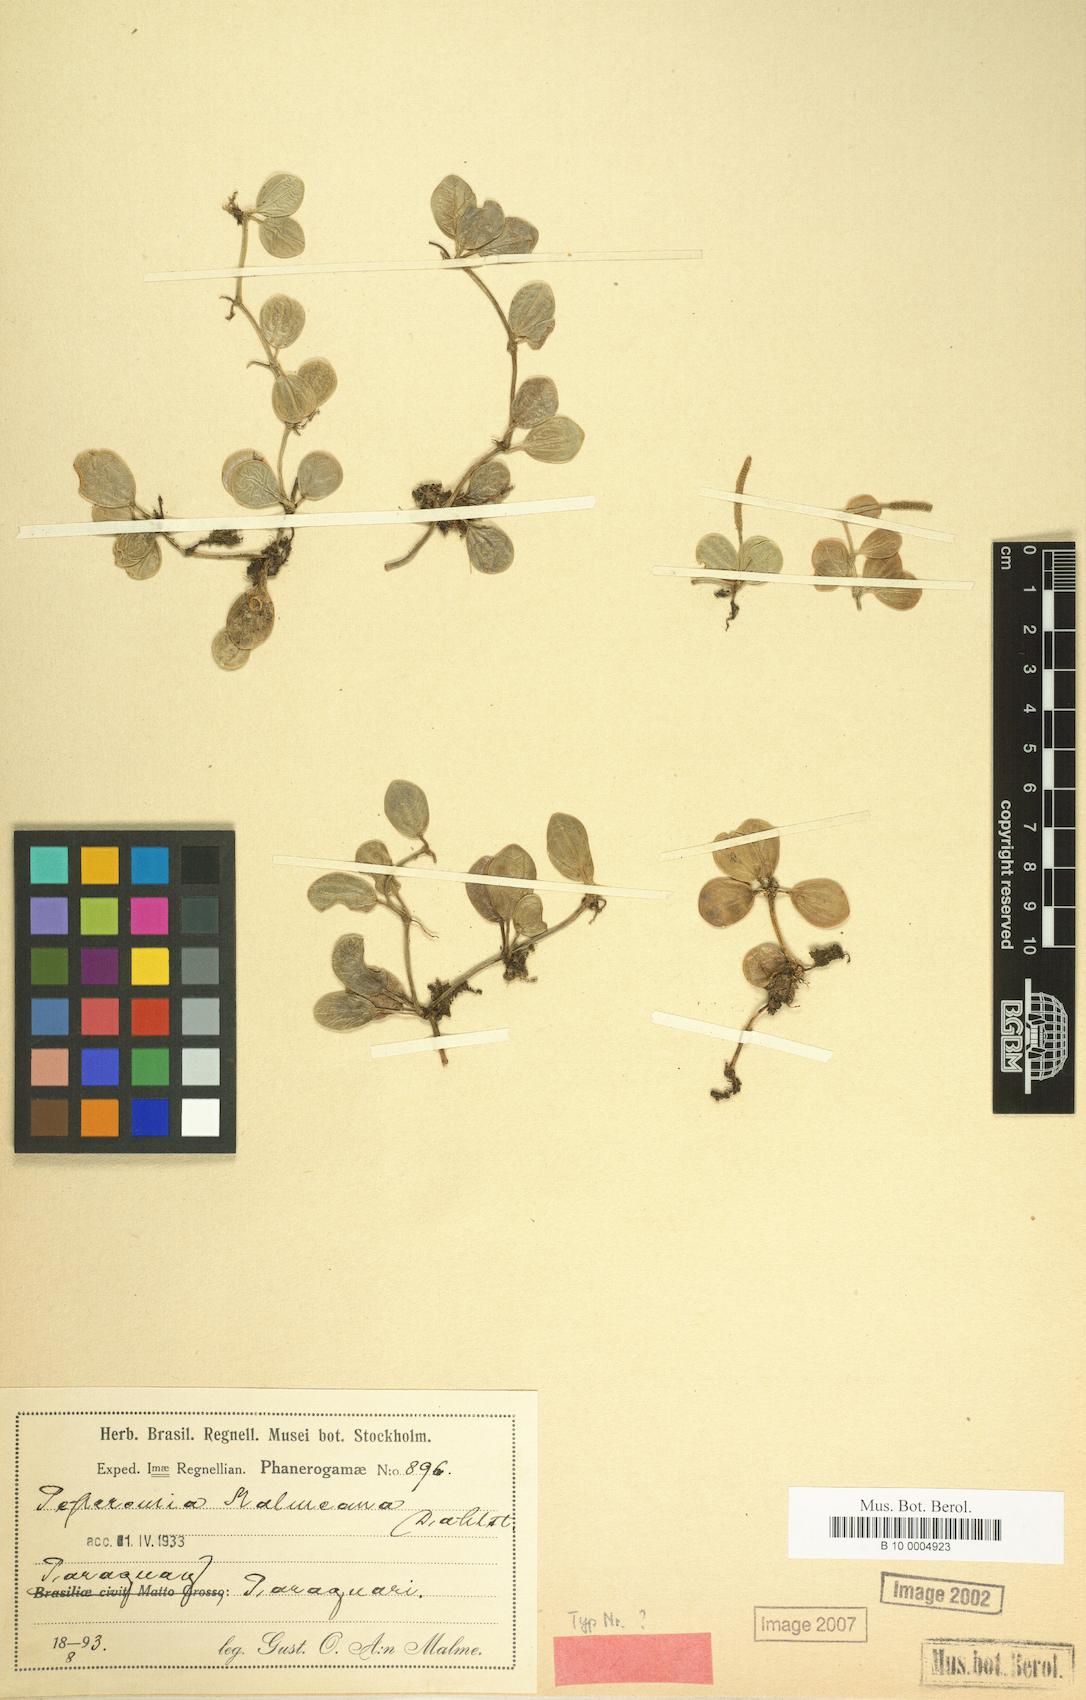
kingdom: Plantae
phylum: Tracheophyta
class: Magnoliopsida
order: Piperales
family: Piperaceae
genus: Peperomia
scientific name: Peperomia aceroana
